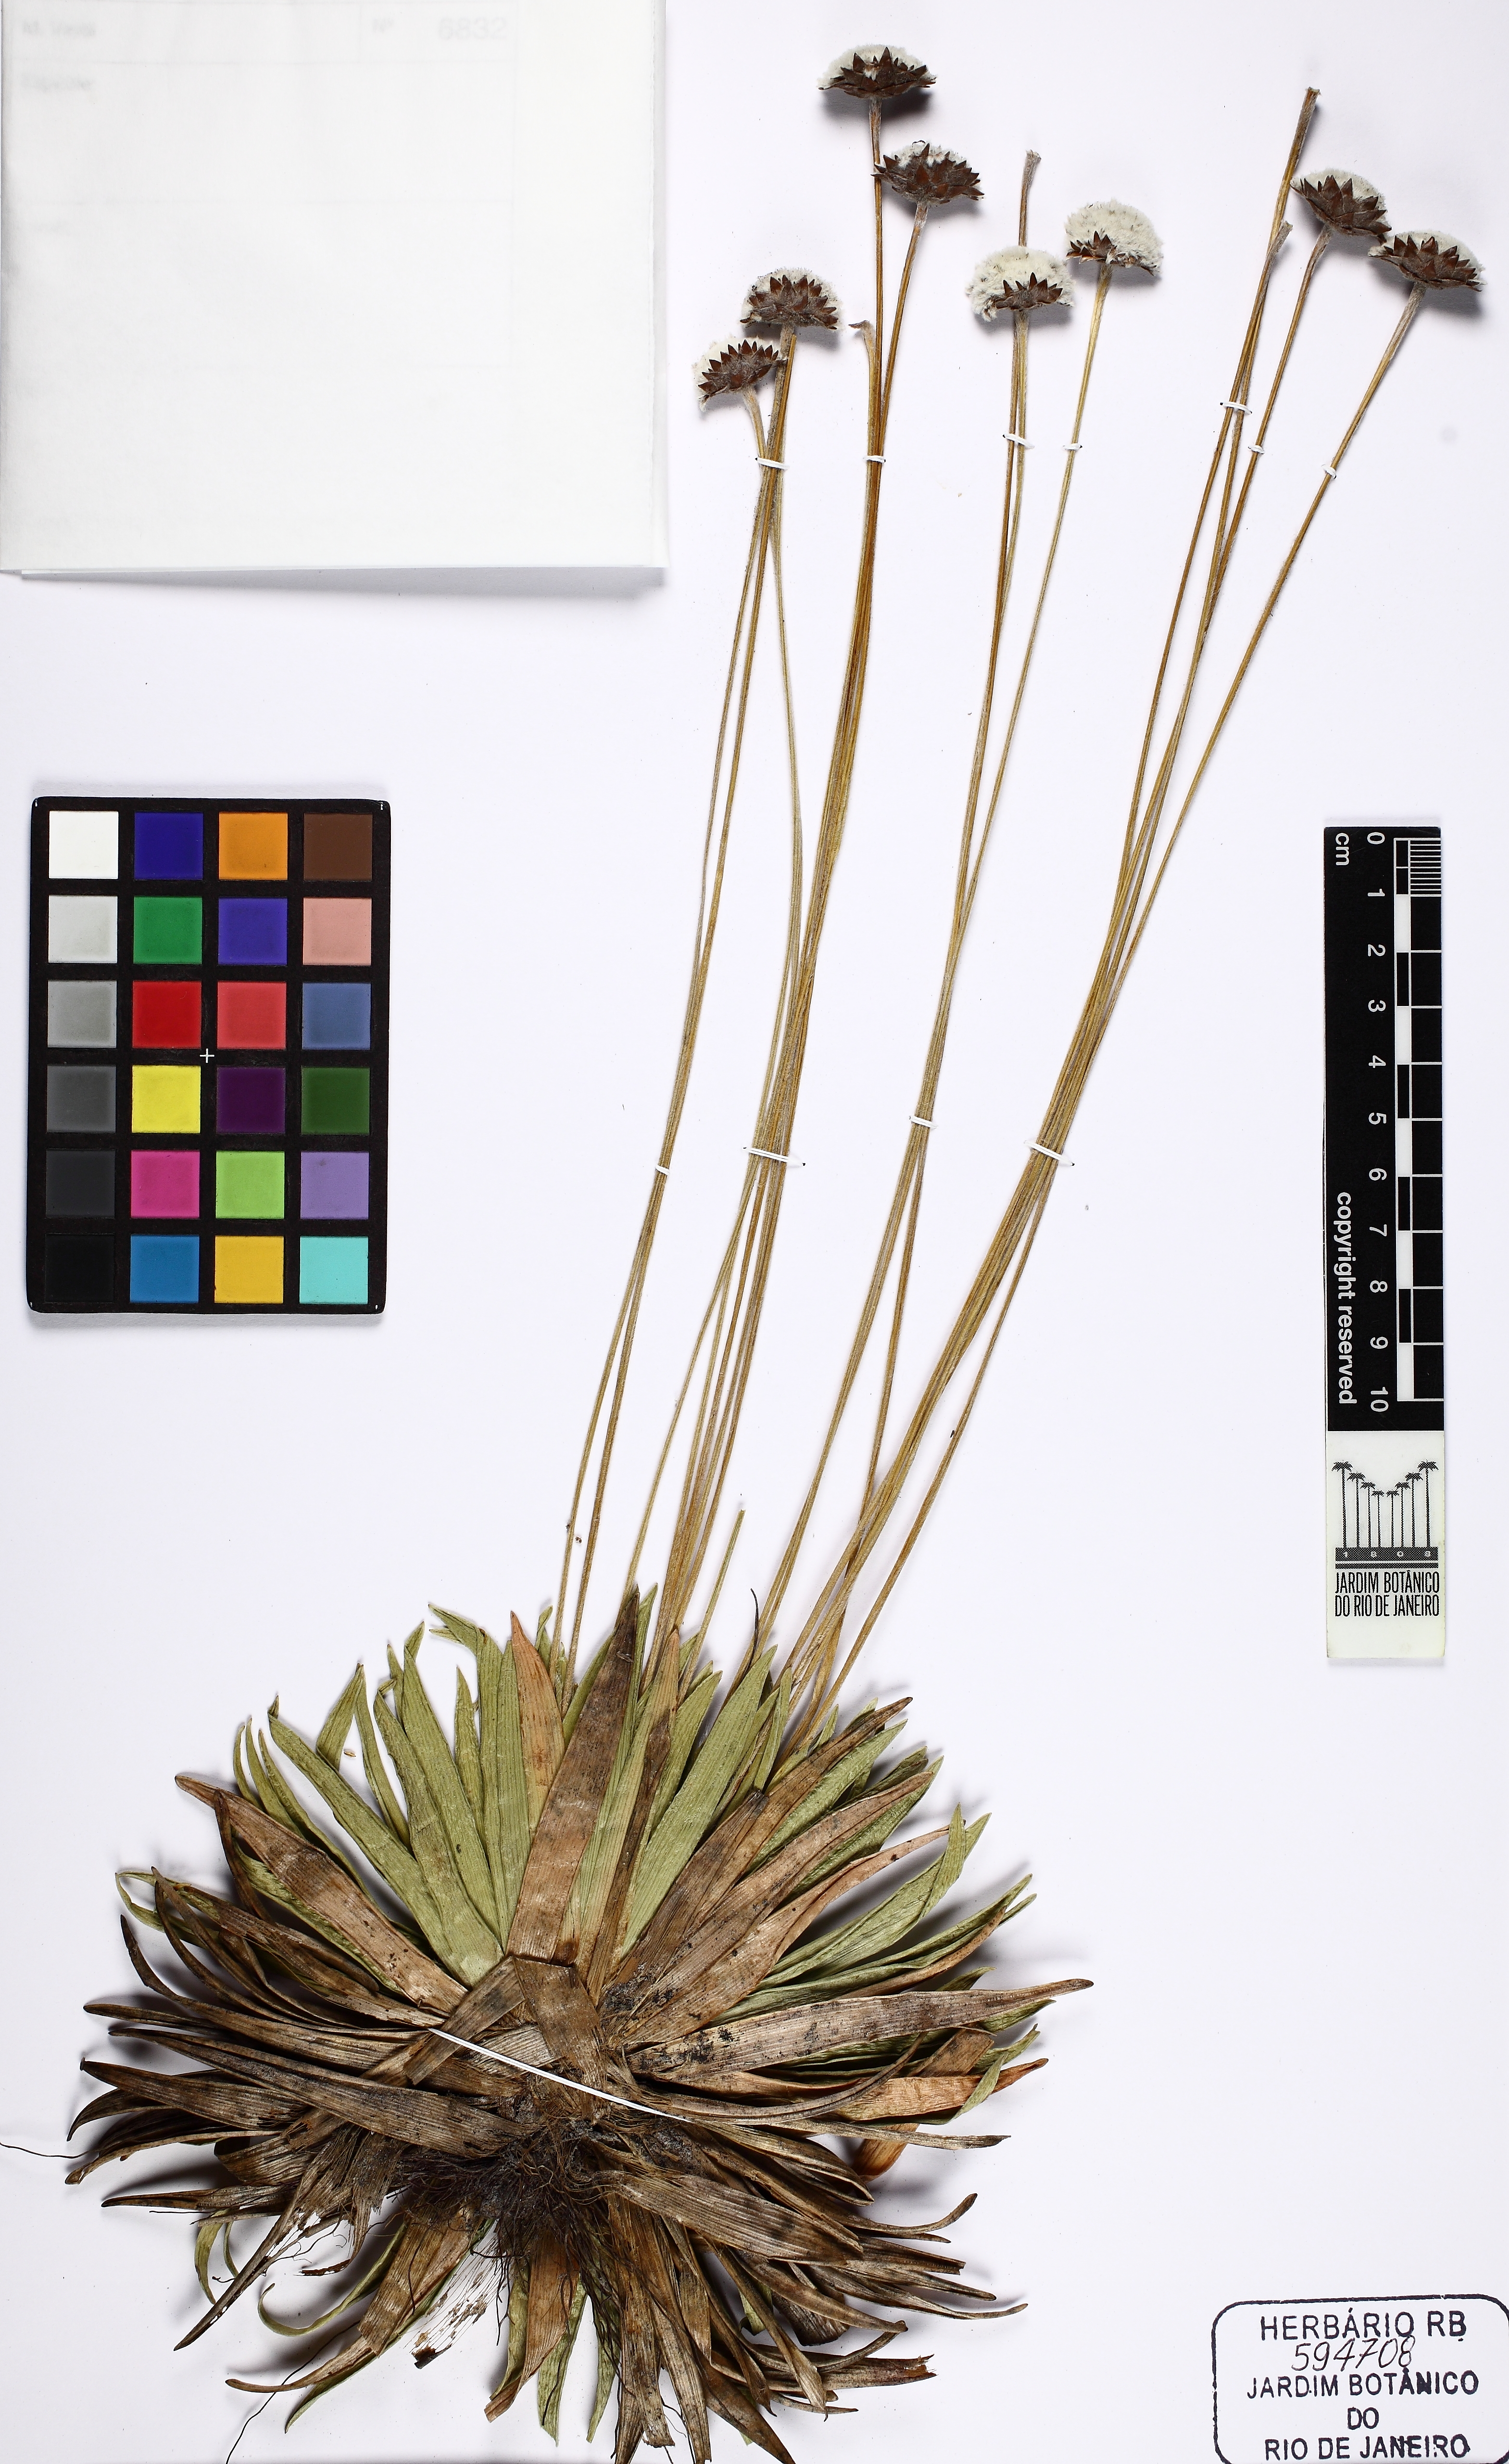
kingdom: Plantae
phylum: Tracheophyta
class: Liliopsida
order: Poales
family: Eriocaulaceae
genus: Paepalanthus
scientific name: Paepalanthus comans
